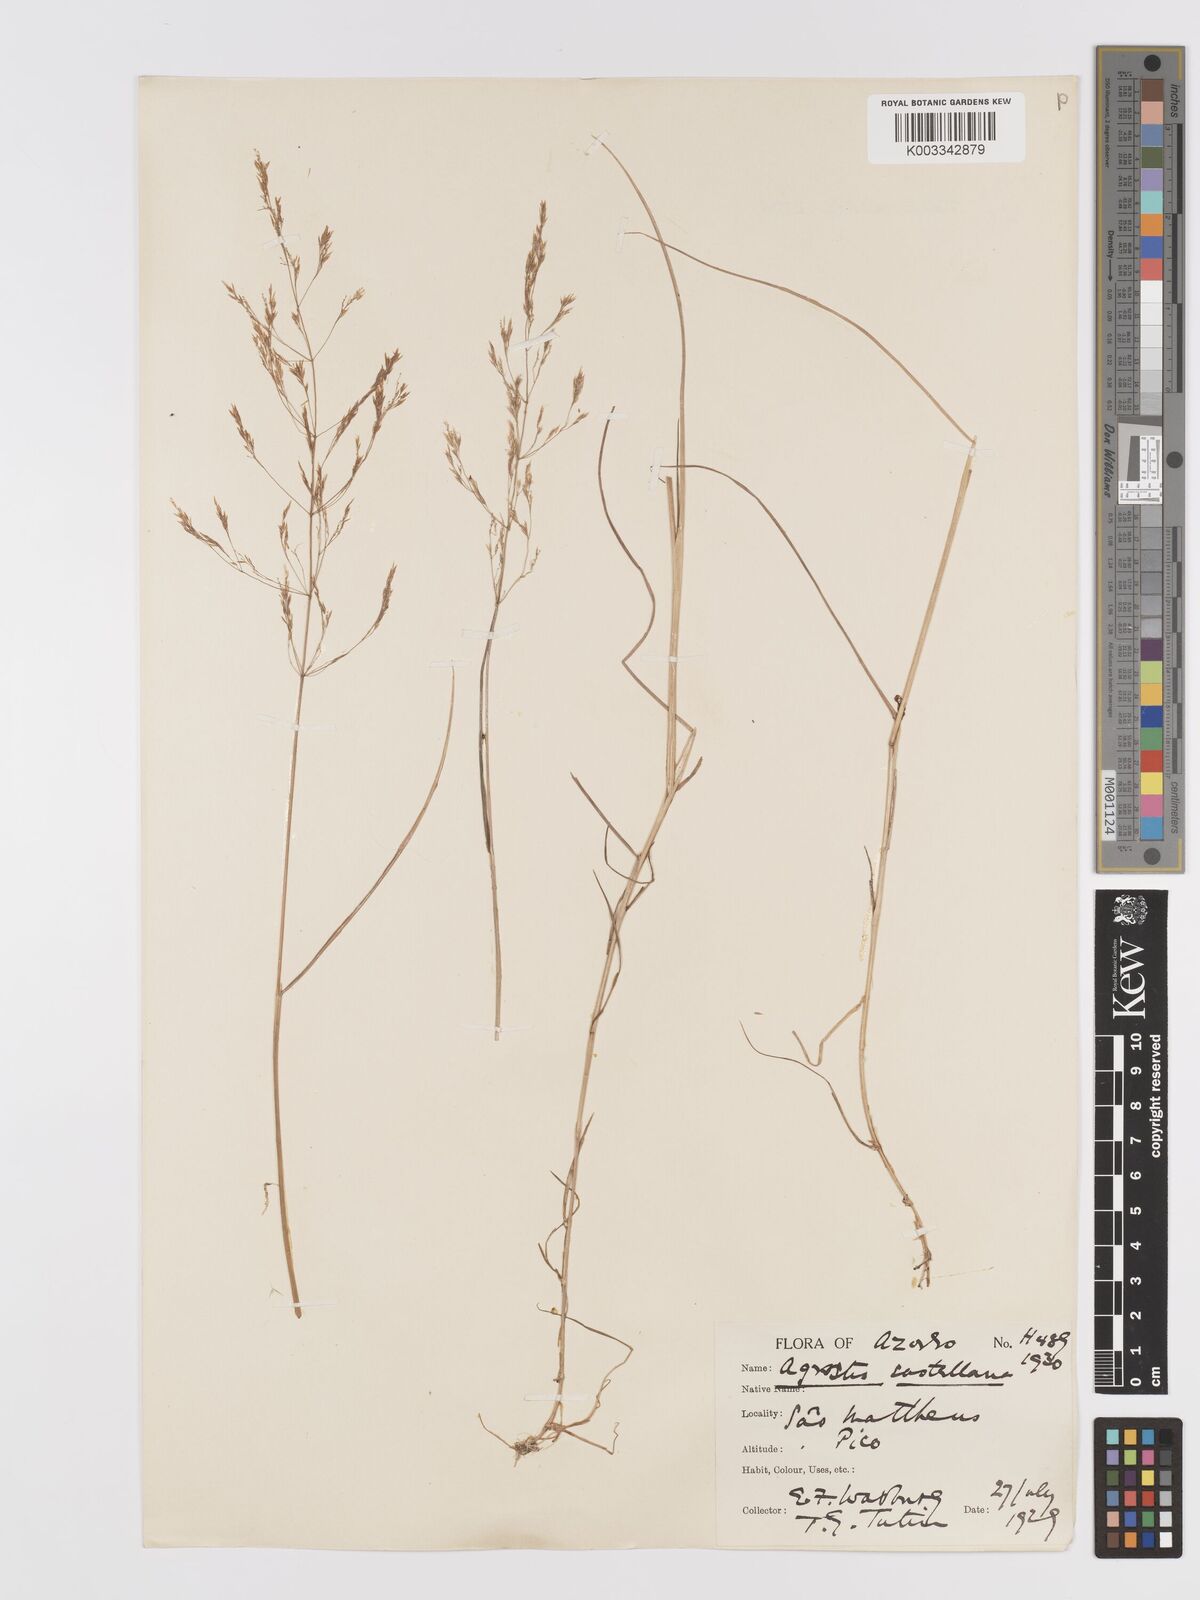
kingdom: Plantae
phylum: Tracheophyta
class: Liliopsida
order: Poales
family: Poaceae
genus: Agrostis
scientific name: Agrostis castellana
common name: Highland bent
